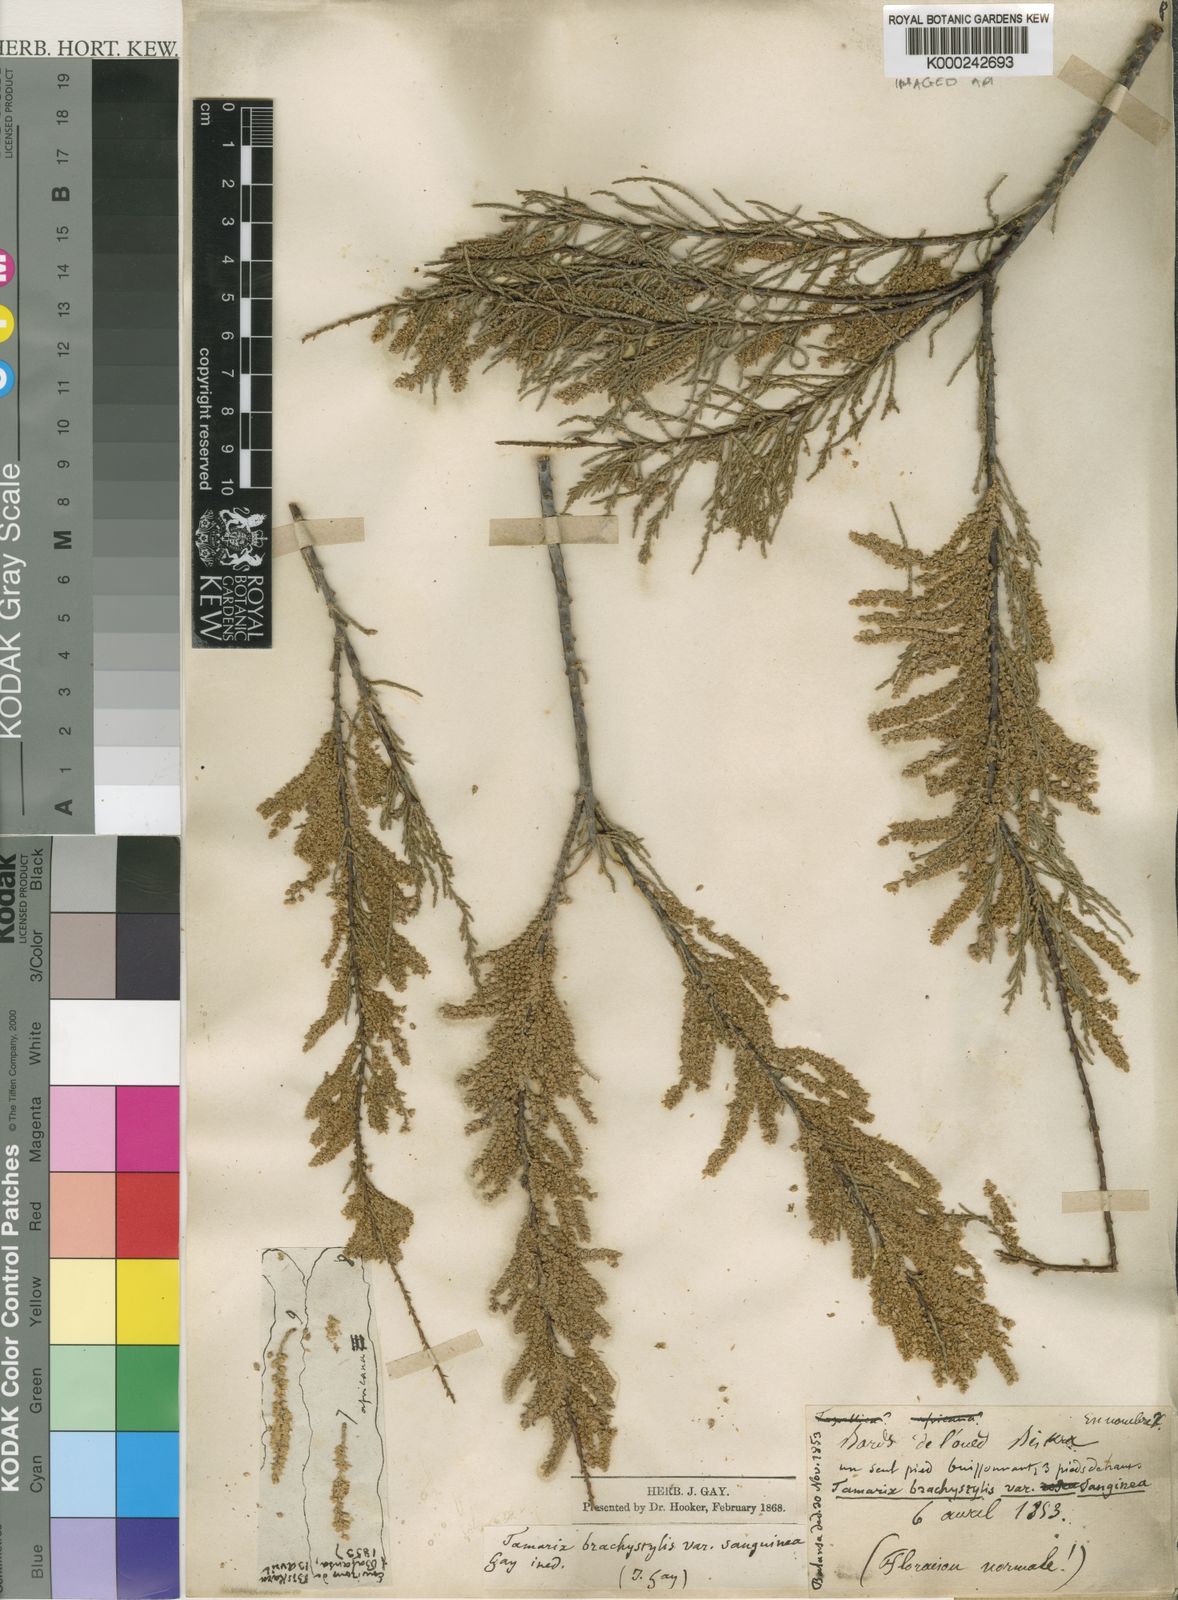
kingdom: Plantae
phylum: Tracheophyta
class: Magnoliopsida
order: Caryophyllales
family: Tamaricaceae
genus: Tamarix
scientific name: Tamarix
